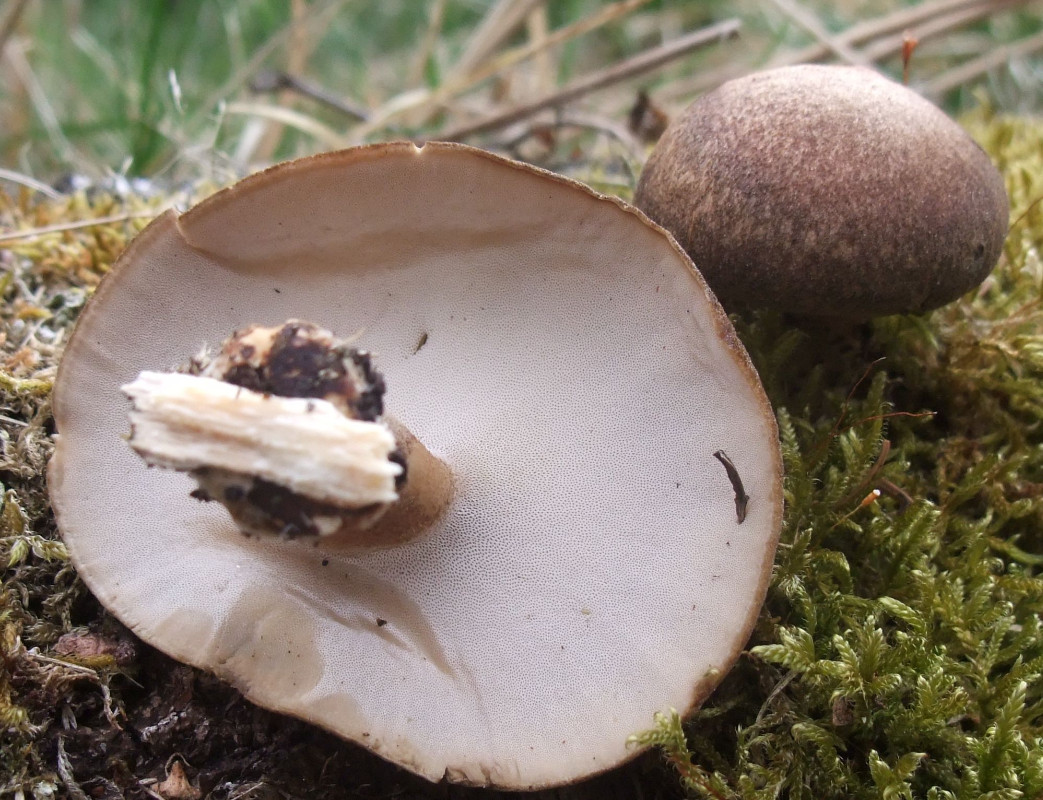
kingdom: Fungi
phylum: Basidiomycota
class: Agaricomycetes
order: Polyporales
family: Polyporaceae
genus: Lentinus
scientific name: Lentinus substrictus
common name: forårs-stilkporesvamp
